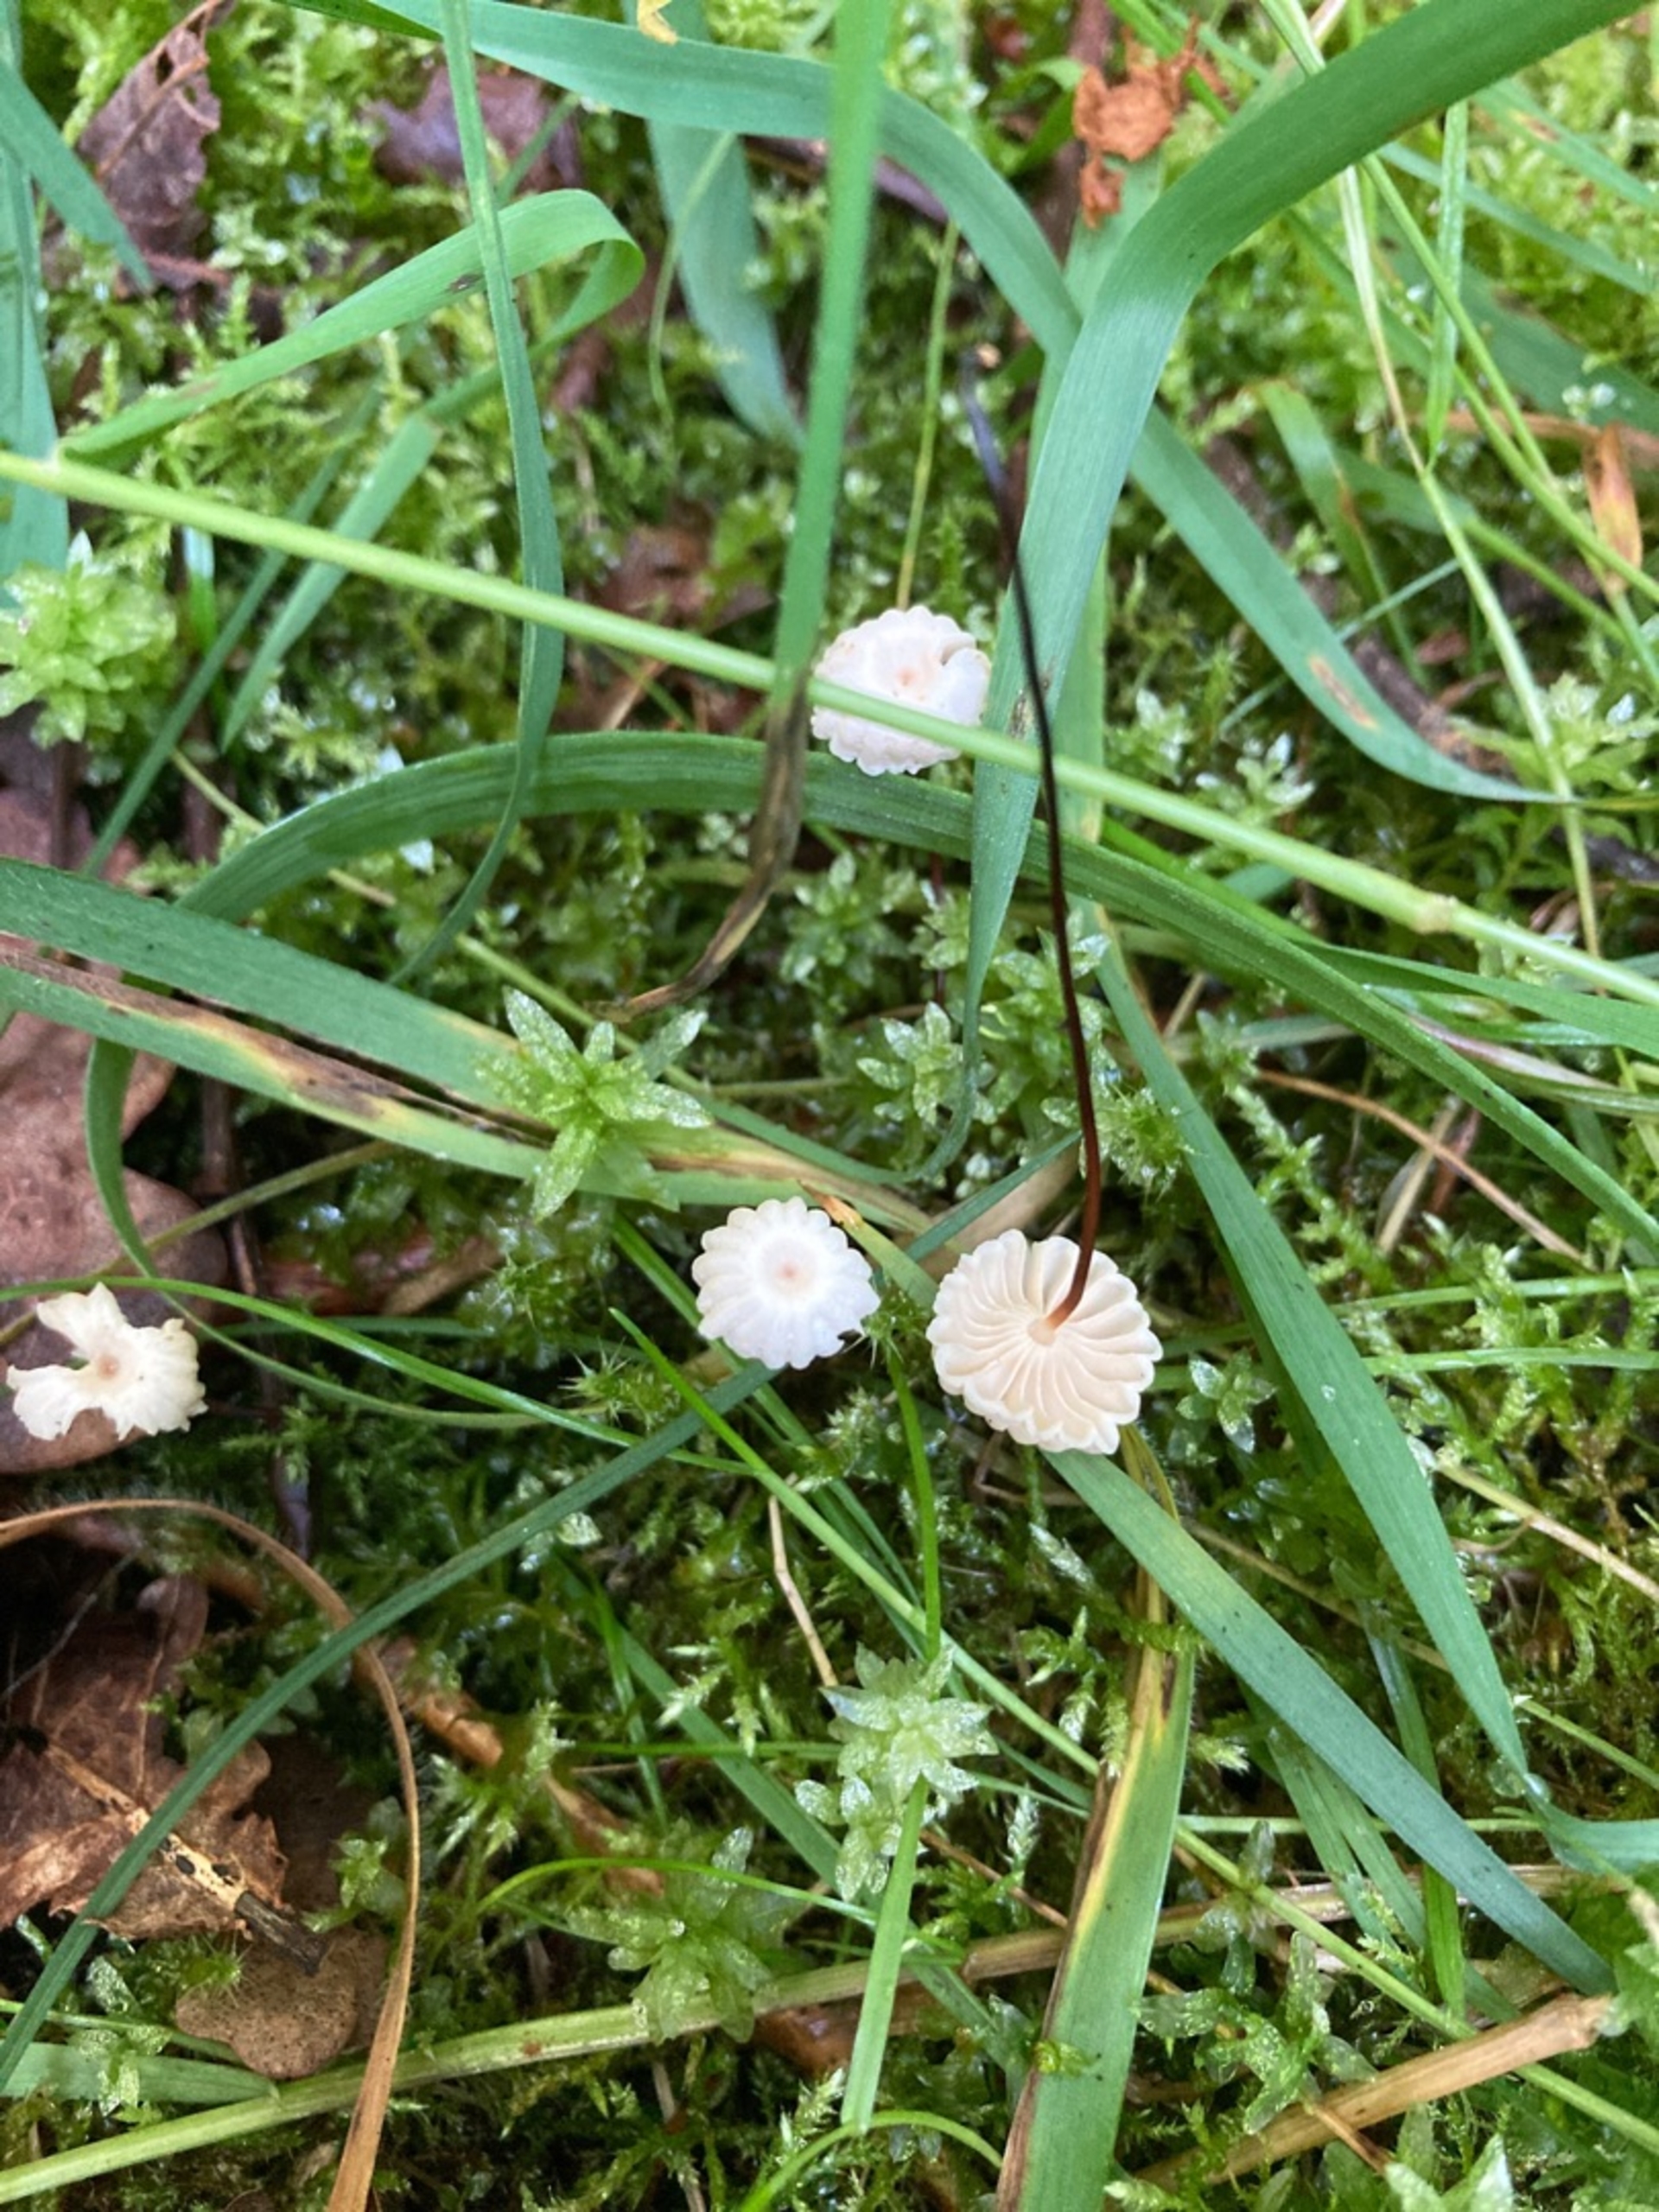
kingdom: Fungi
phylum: Basidiomycota
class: Agaricomycetes
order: Agaricales
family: Marasmiaceae
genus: Marasmius
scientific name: Marasmius rotula
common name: Hjul-bruskhat
